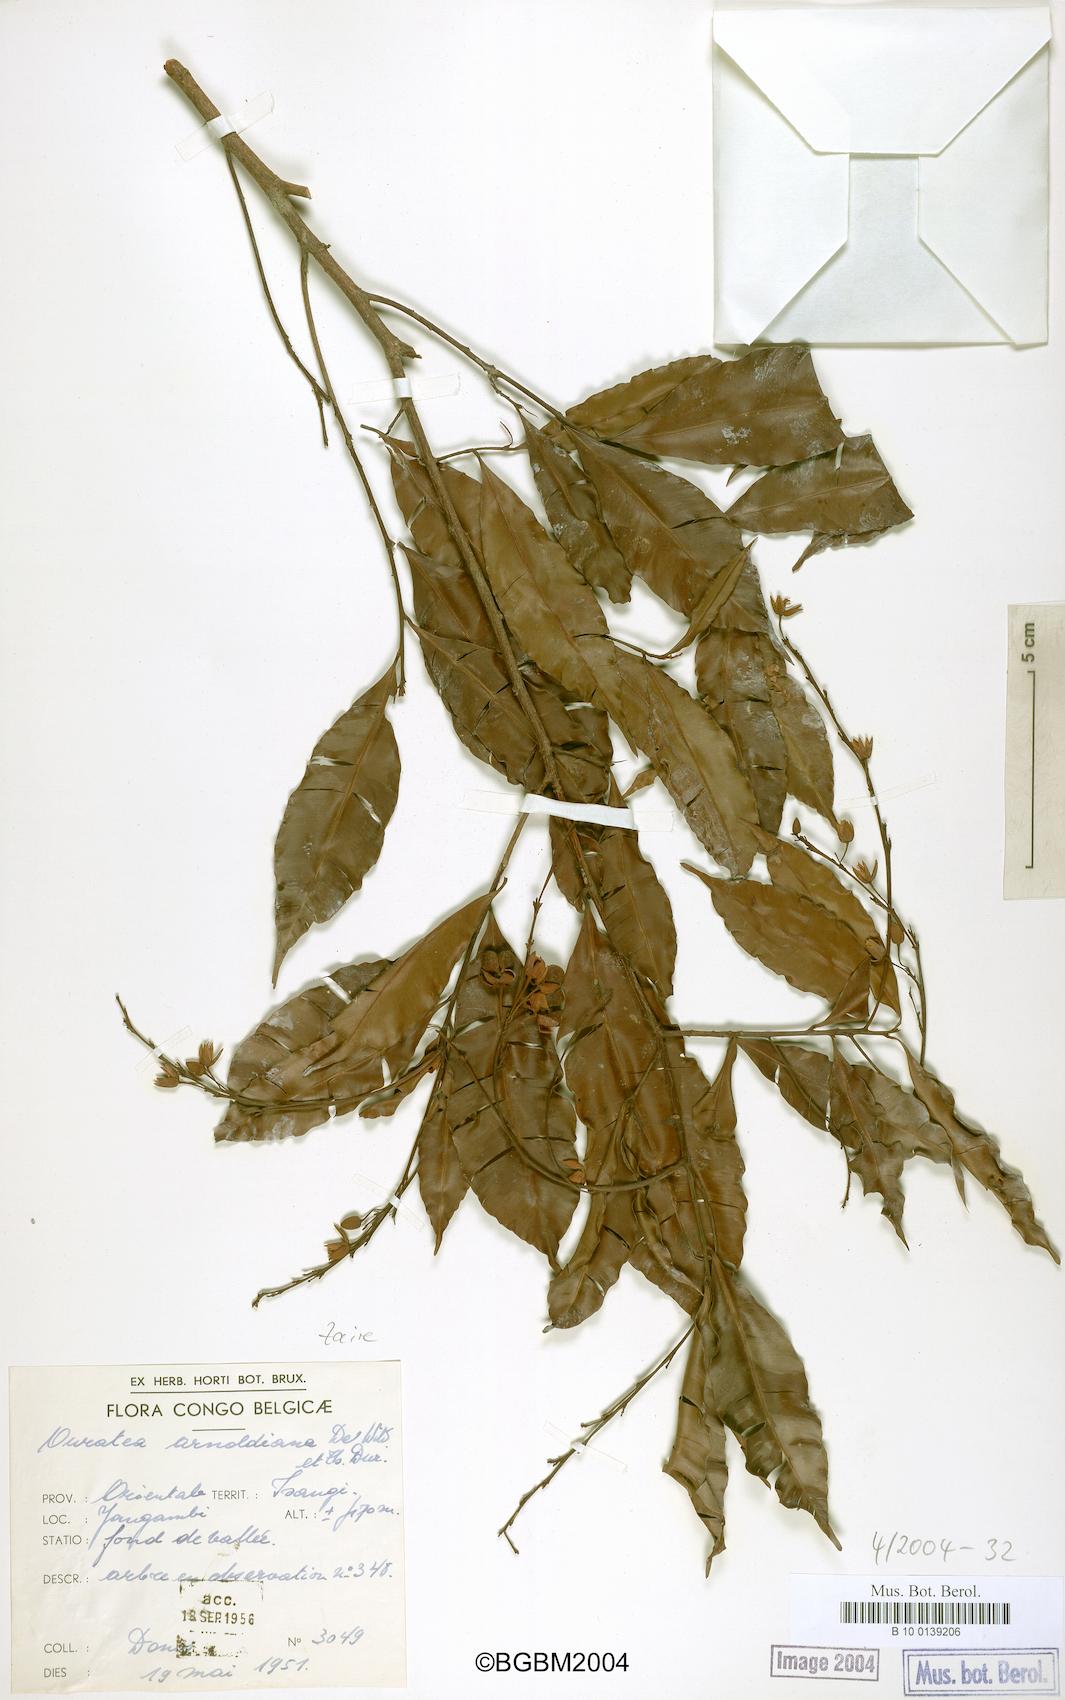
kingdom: Plantae
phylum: Tracheophyta
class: Magnoliopsida
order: Malpighiales
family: Ochnaceae
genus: Rhabdophyllum
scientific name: Rhabdophyllum arnoldianum
